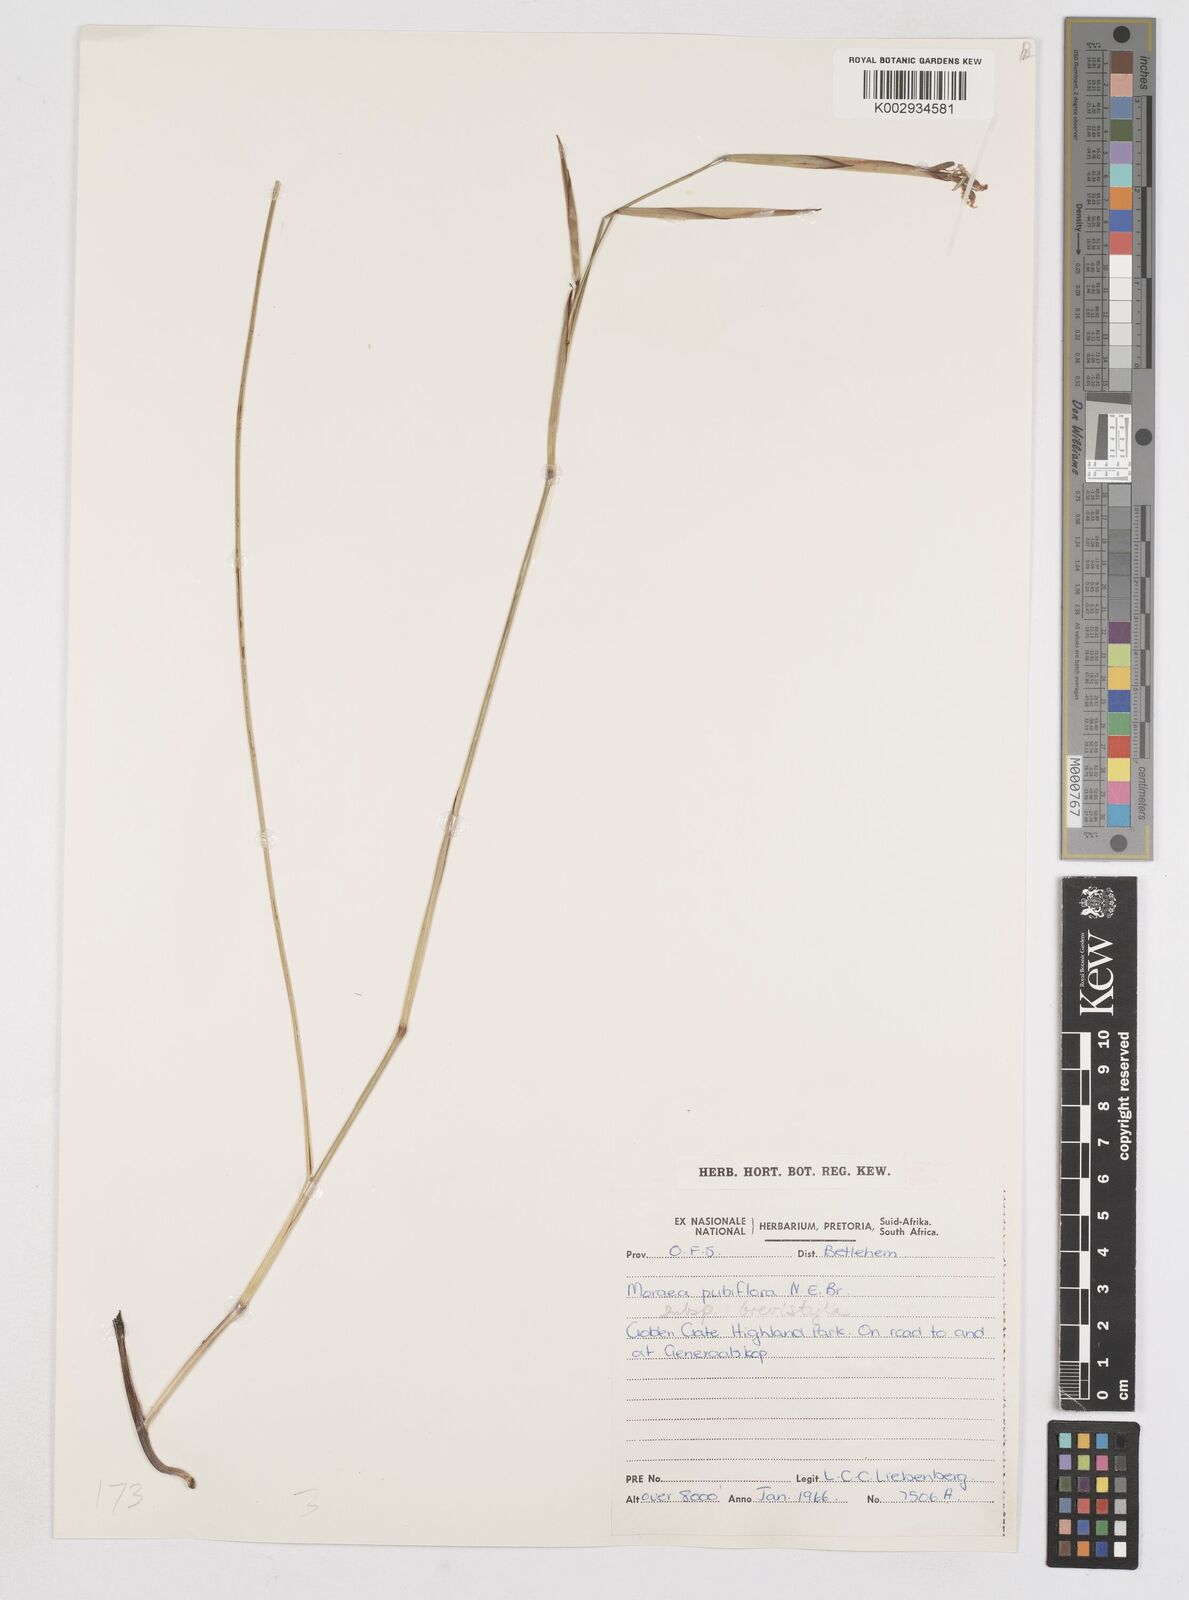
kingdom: Plantae
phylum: Tracheophyta
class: Liliopsida
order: Asparagales
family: Iridaceae
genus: Moraea
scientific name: Moraea brevistyla
